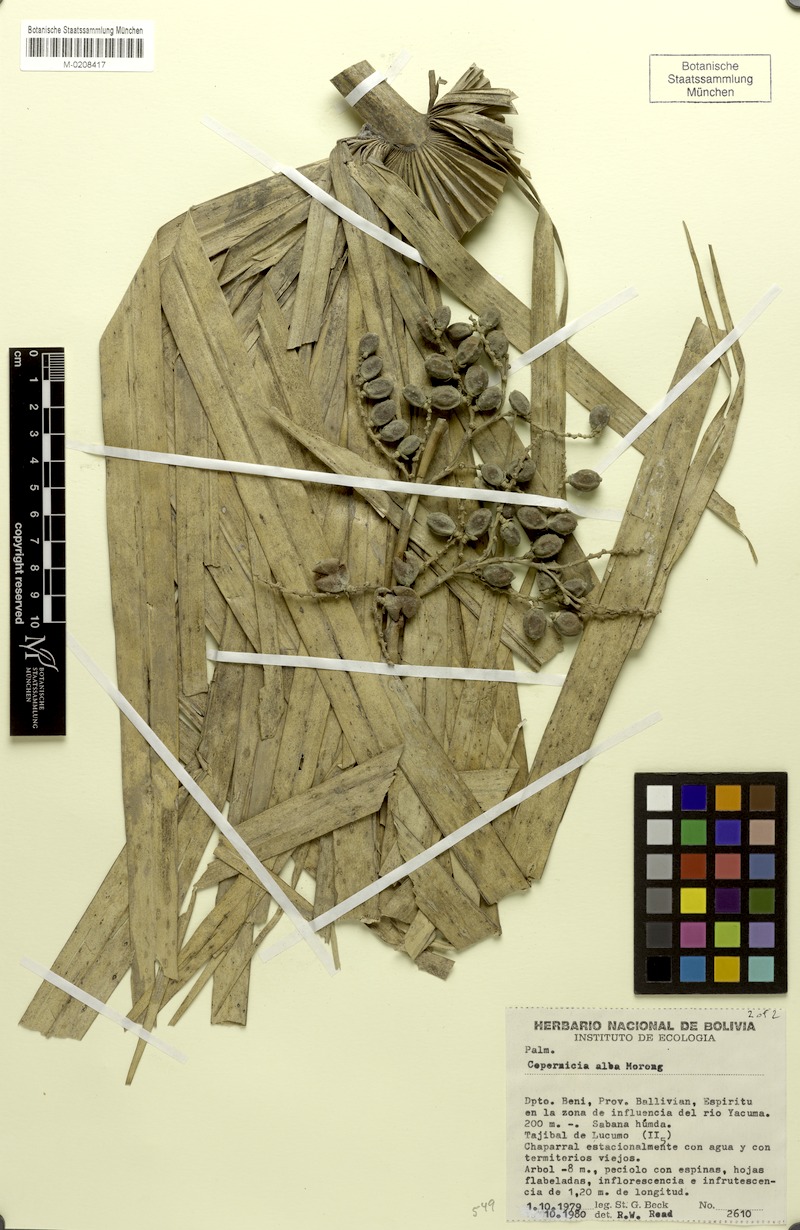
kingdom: Plantae
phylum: Tracheophyta
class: Liliopsida
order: Arecales
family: Arecaceae
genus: Copernicia
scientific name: Copernicia alba
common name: Caranday palm
